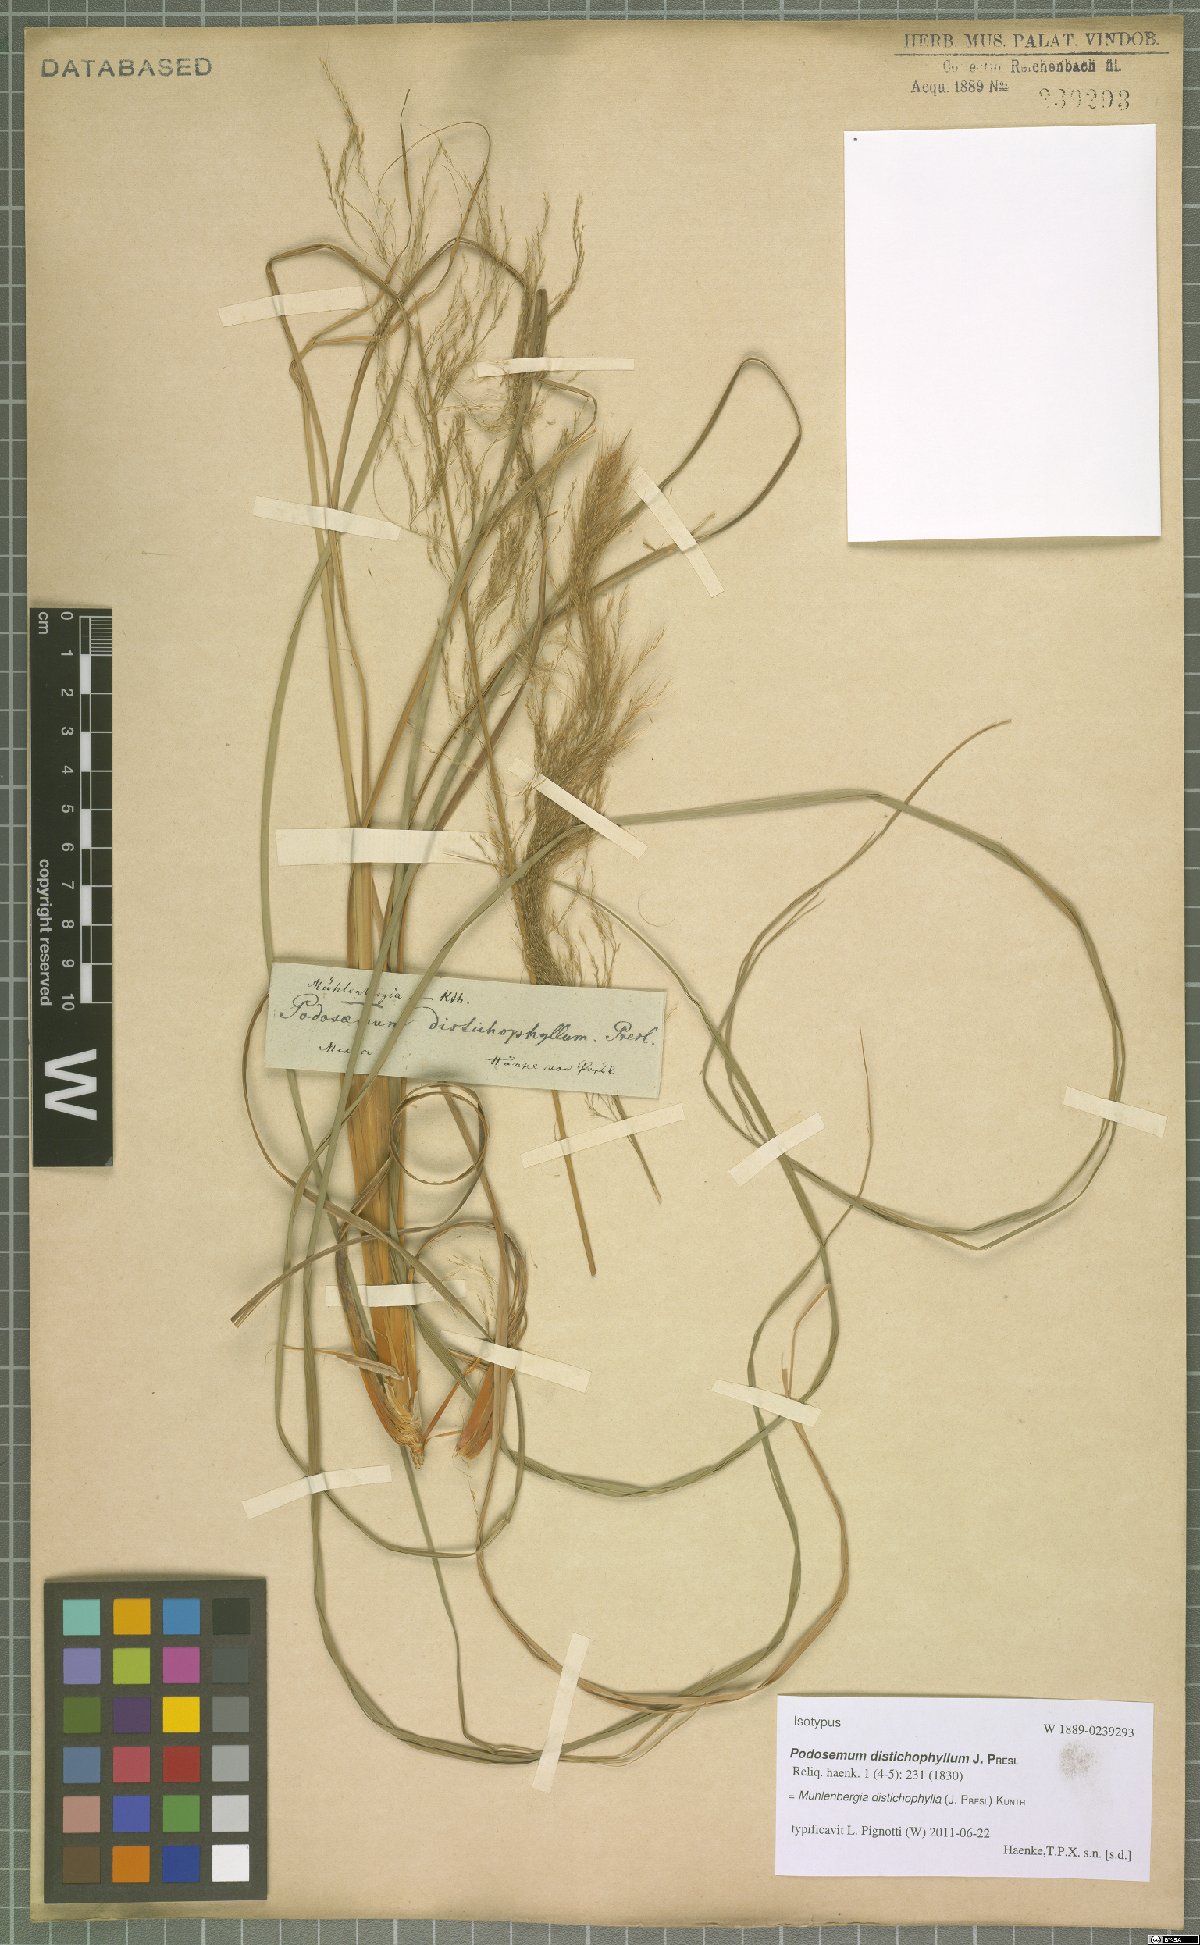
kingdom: Plantae
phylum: Tracheophyta
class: Liliopsida
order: Poales
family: Poaceae
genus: Muhlenbergia
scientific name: Muhlenbergia distichophylla
